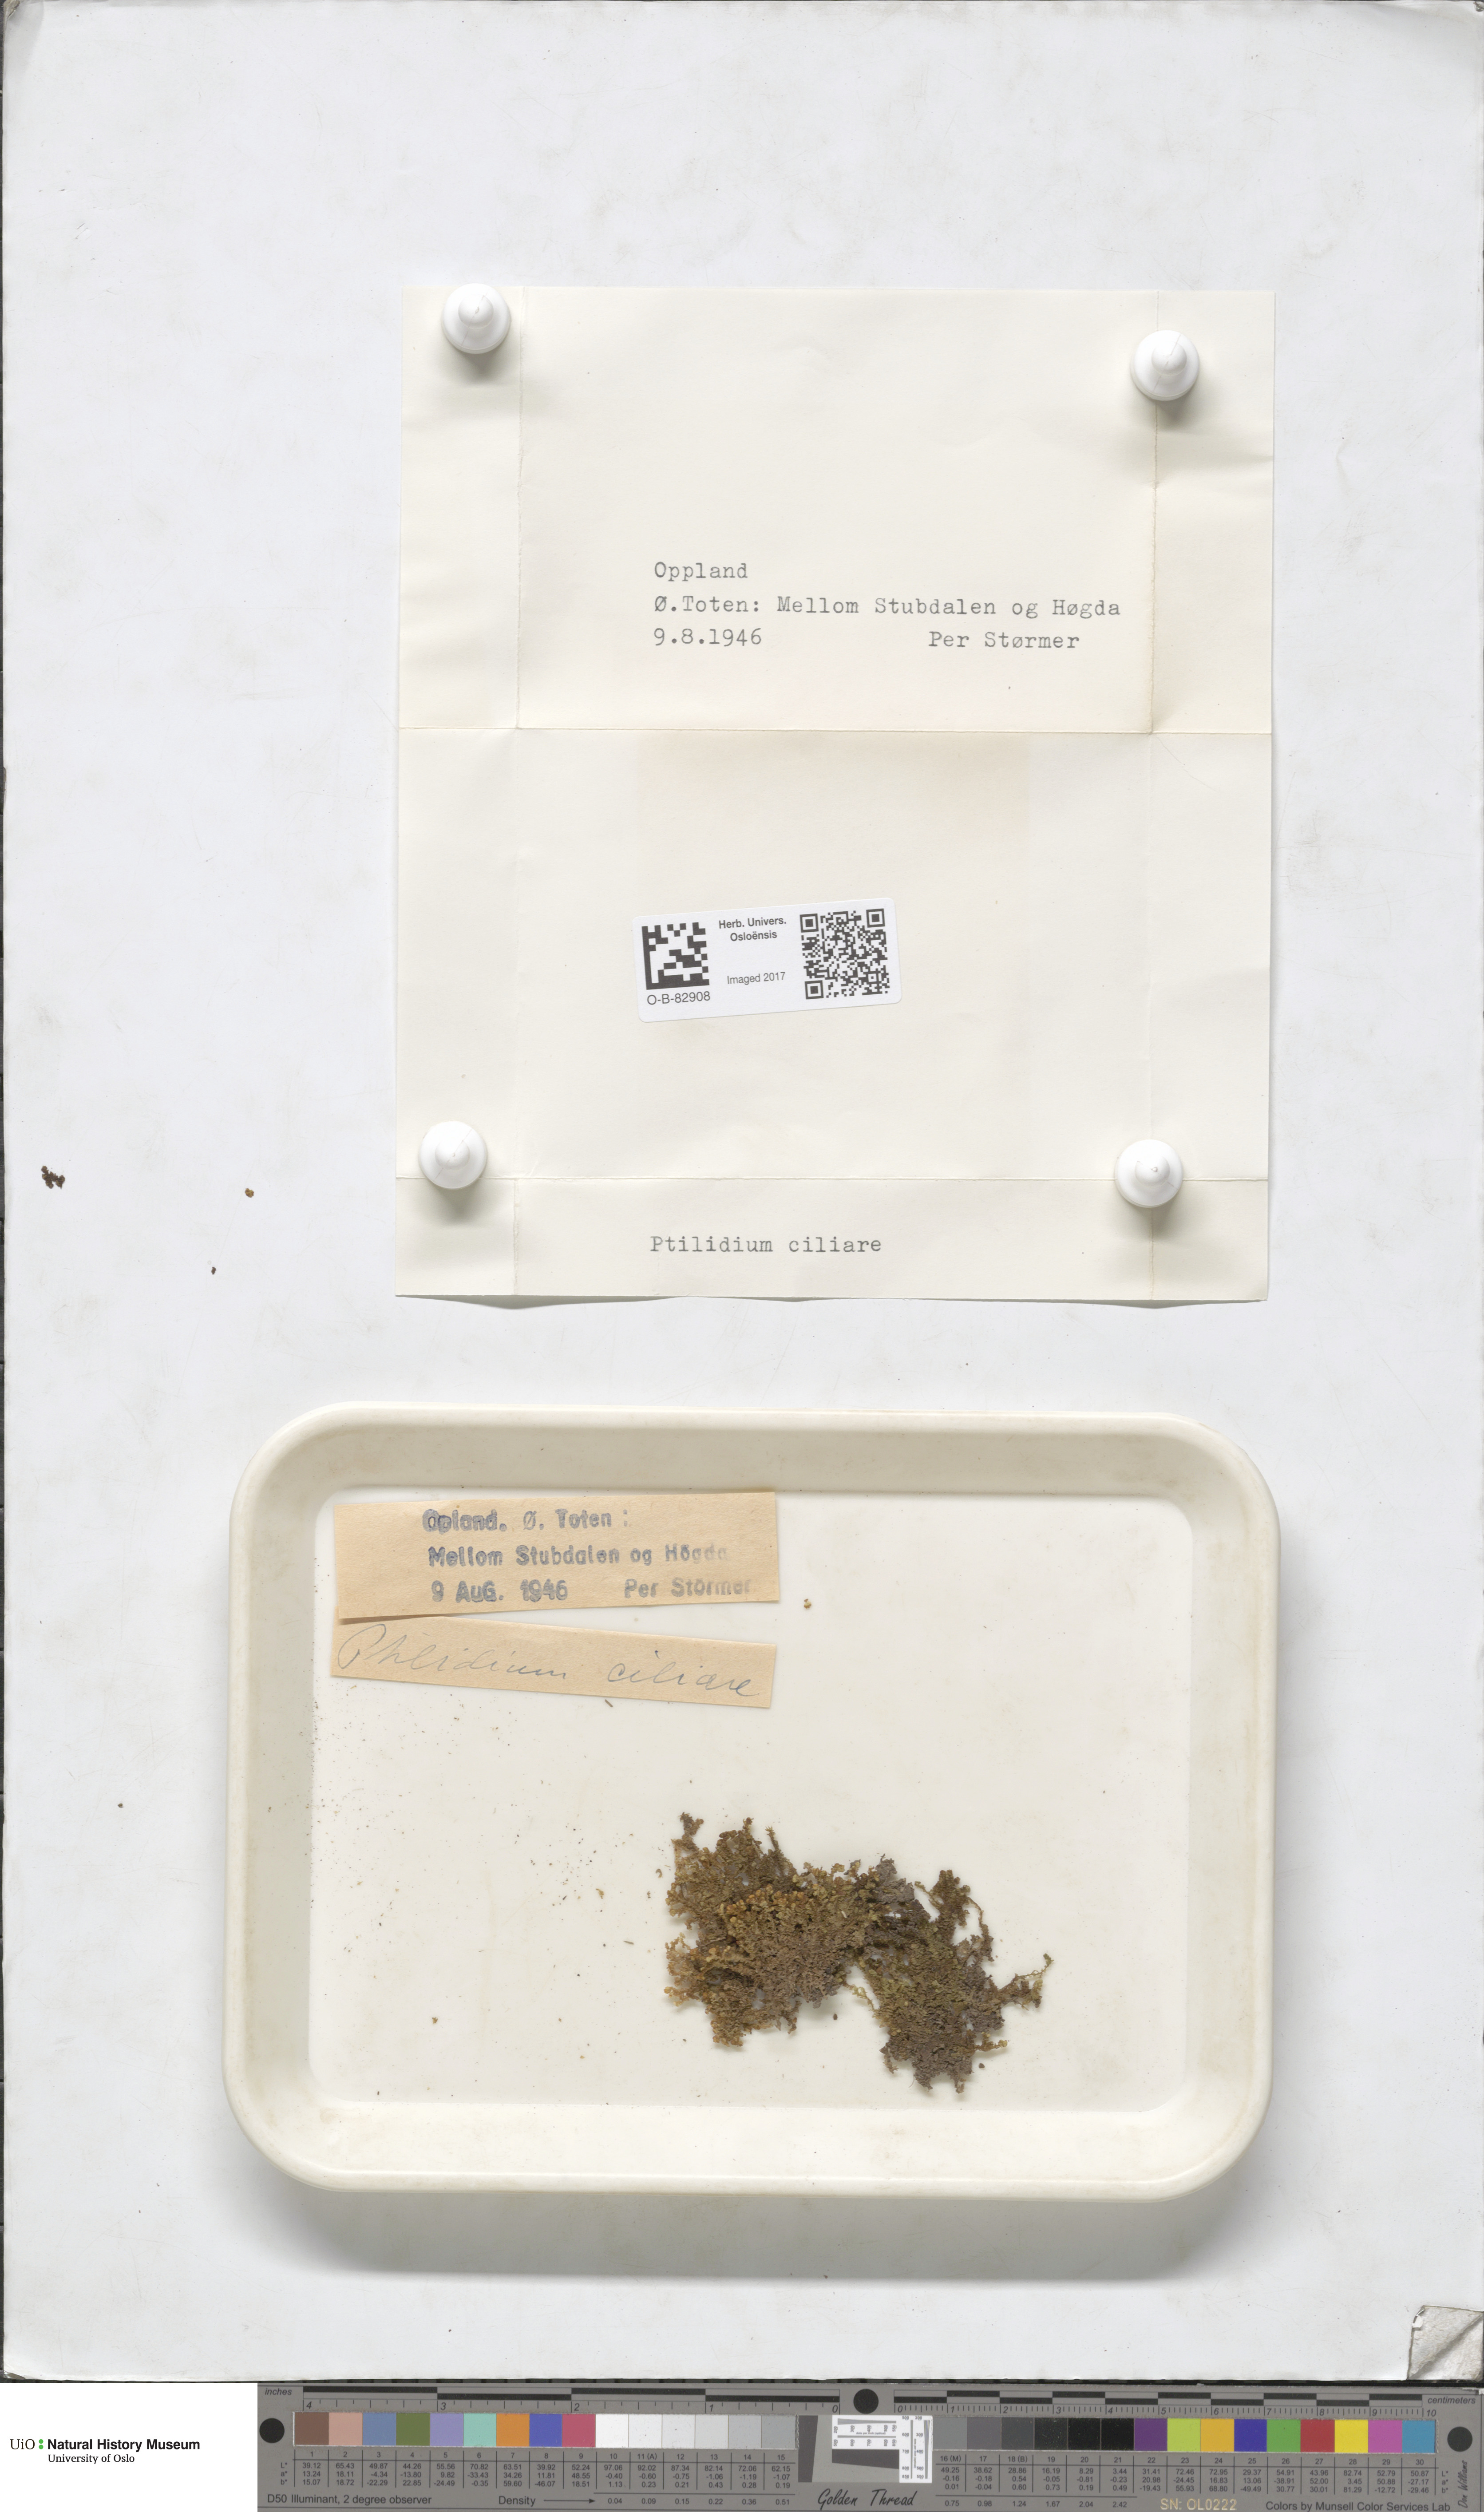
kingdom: Plantae
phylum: Marchantiophyta
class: Jungermanniopsida
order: Ptilidiales
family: Ptilidiaceae
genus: Ptilidium
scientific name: Ptilidium ciliare
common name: Ciliate fringewort
